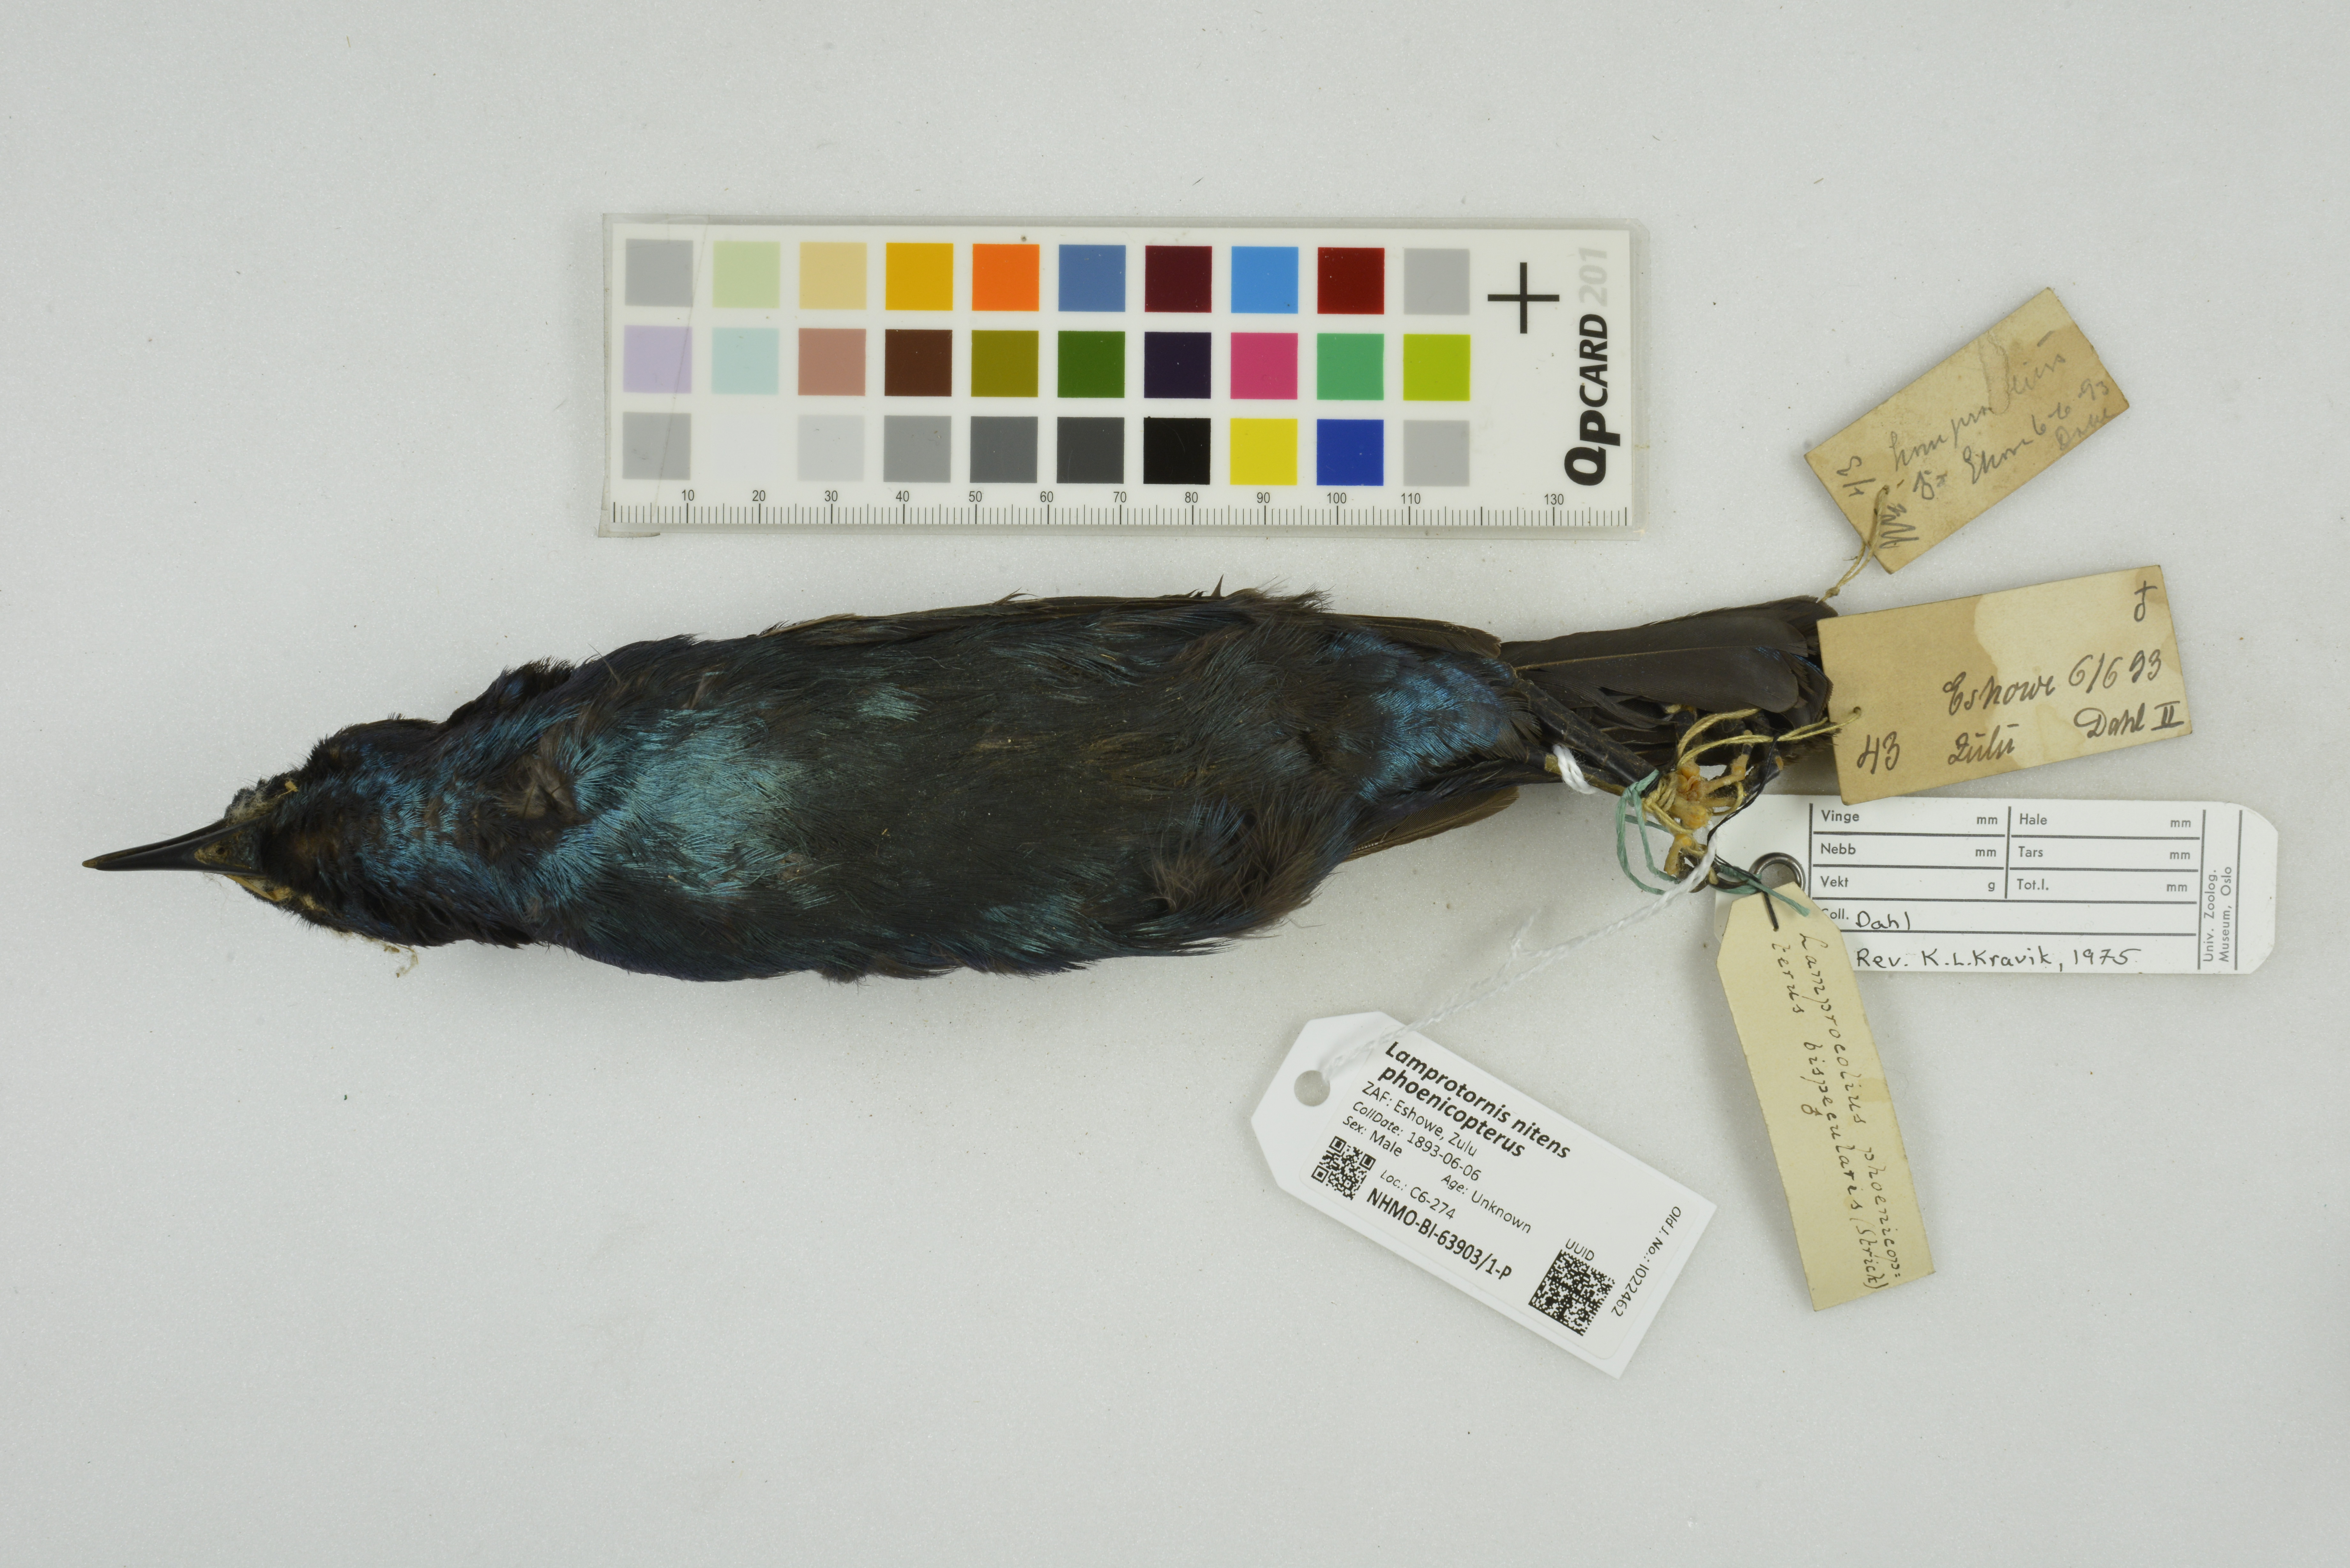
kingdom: Animalia
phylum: Chordata
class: Aves
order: Passeriformes
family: Sturnidae
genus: Lamprotornis
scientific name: Lamprotornis nitens
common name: Cape starling
